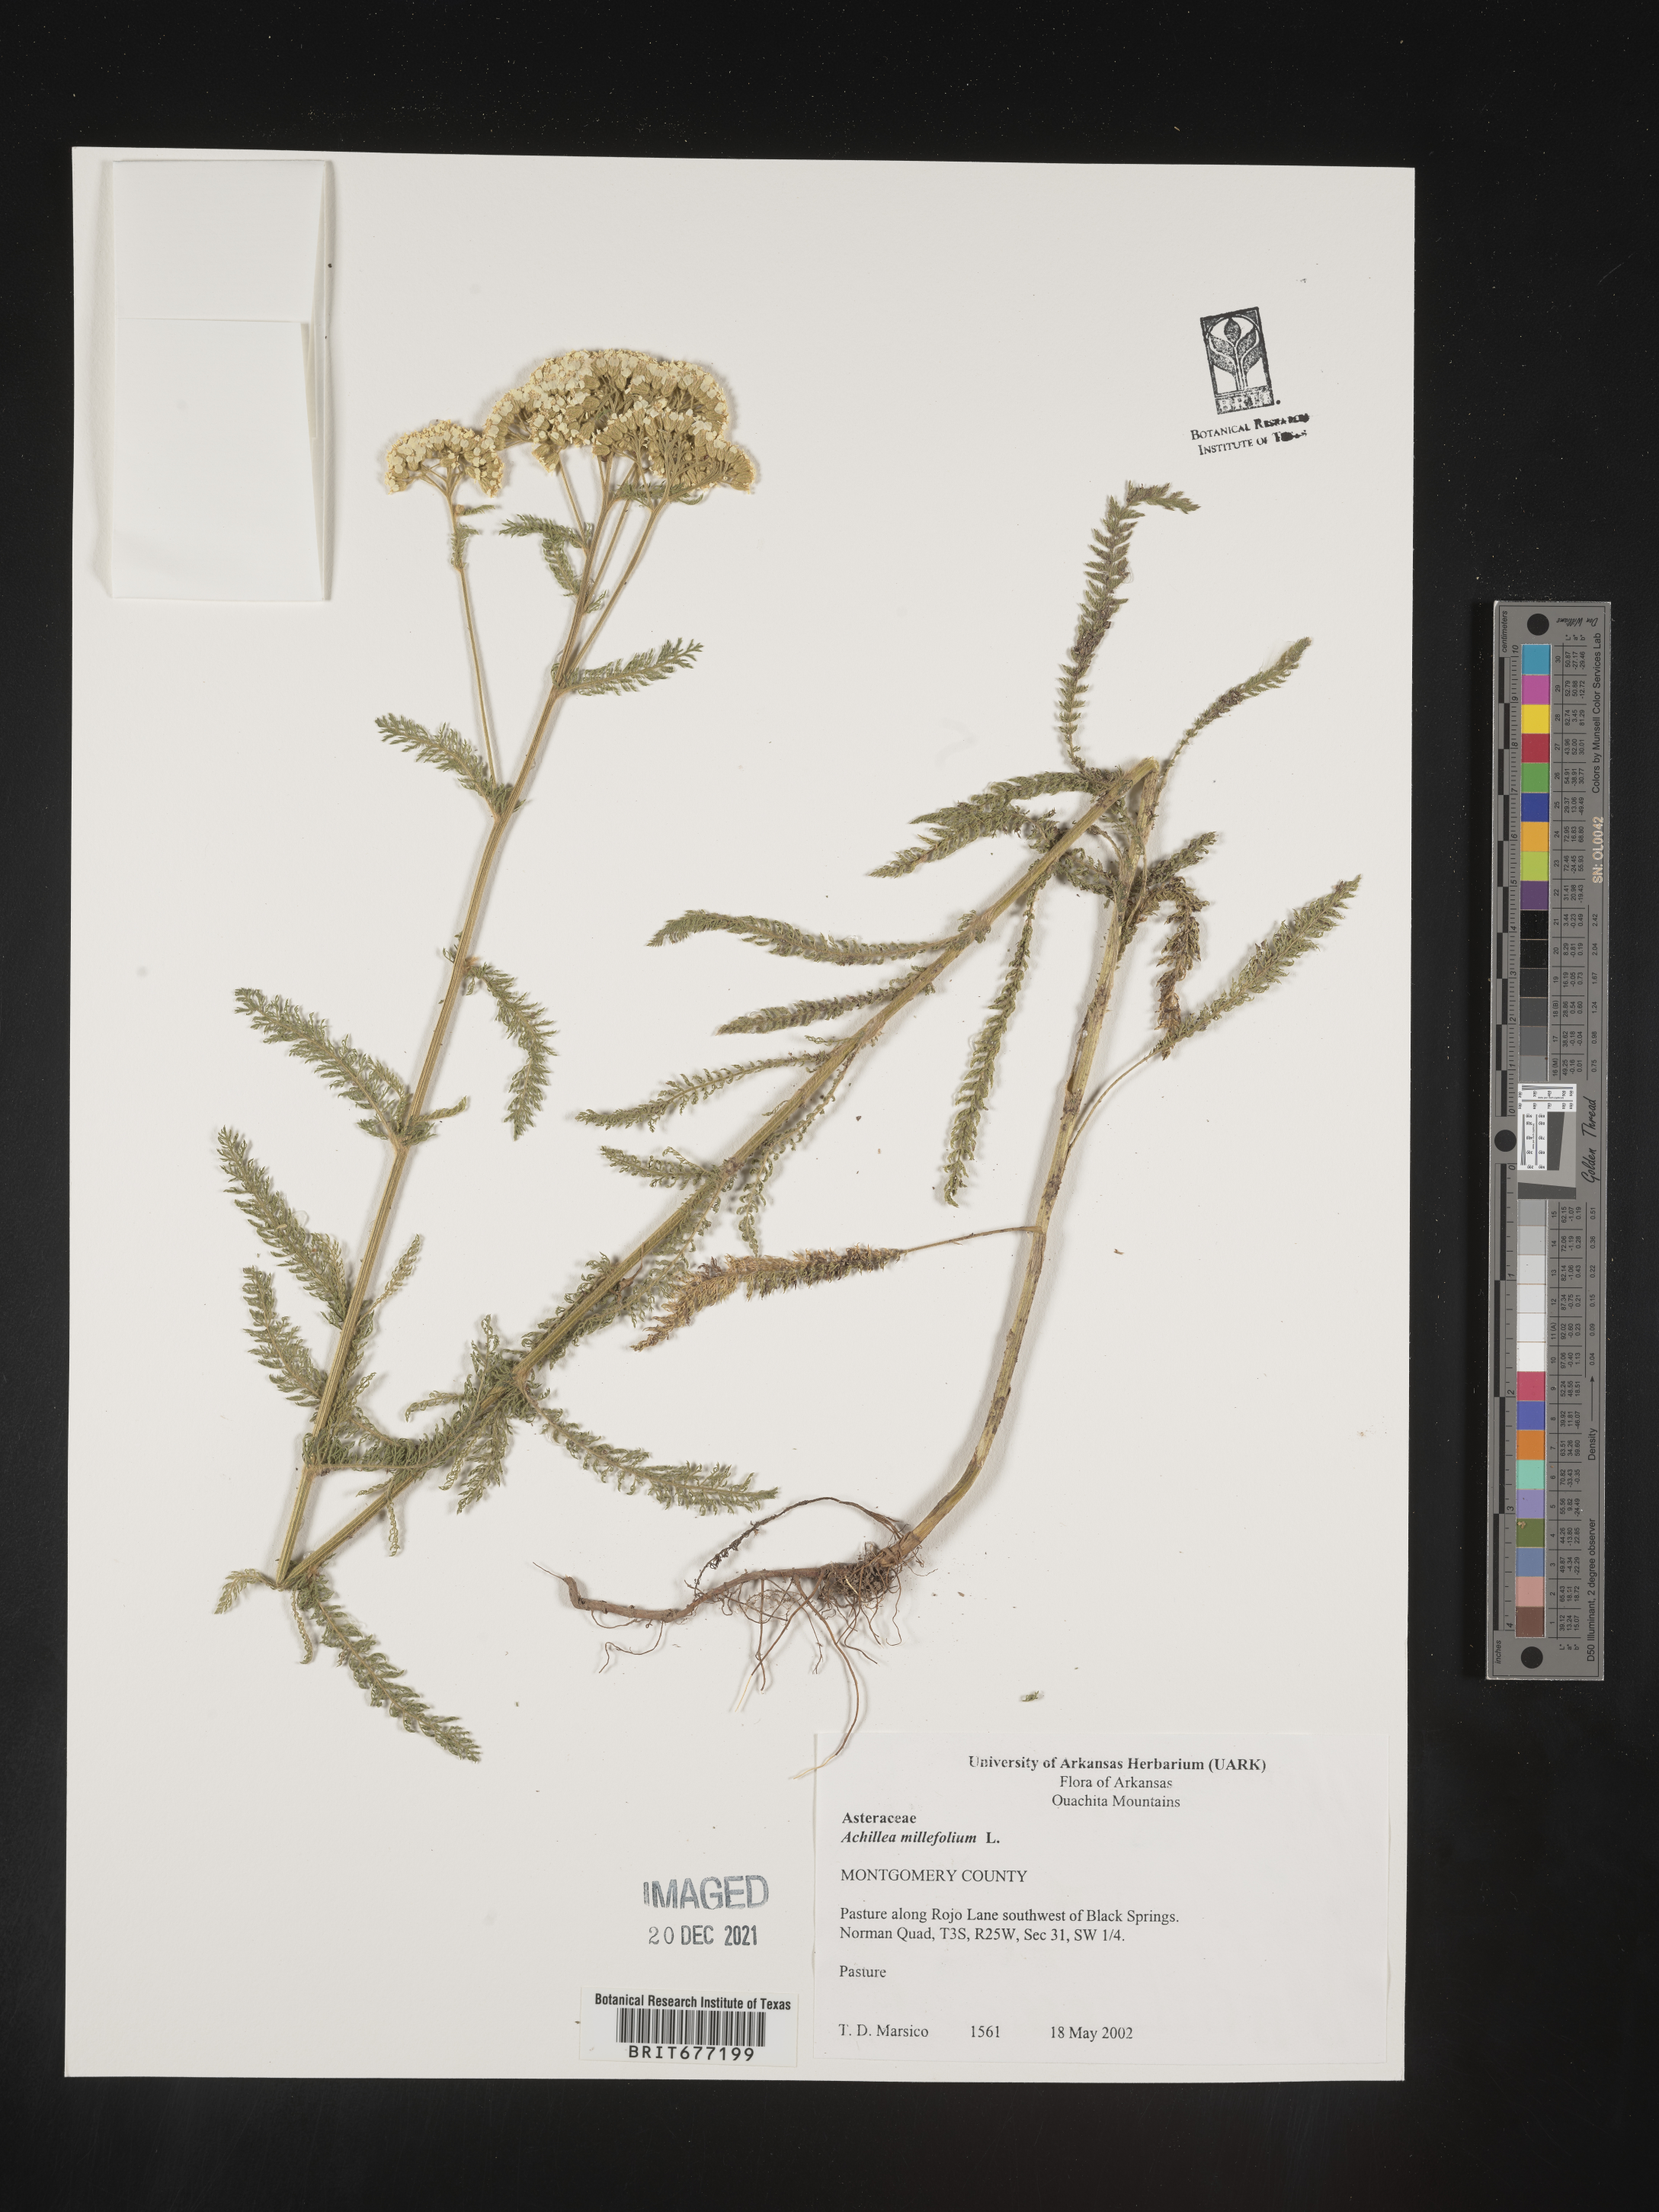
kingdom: Plantae
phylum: Tracheophyta
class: Magnoliopsida
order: Asterales
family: Asteraceae
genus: Achillea
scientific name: Achillea millefolium
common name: Yarrow
